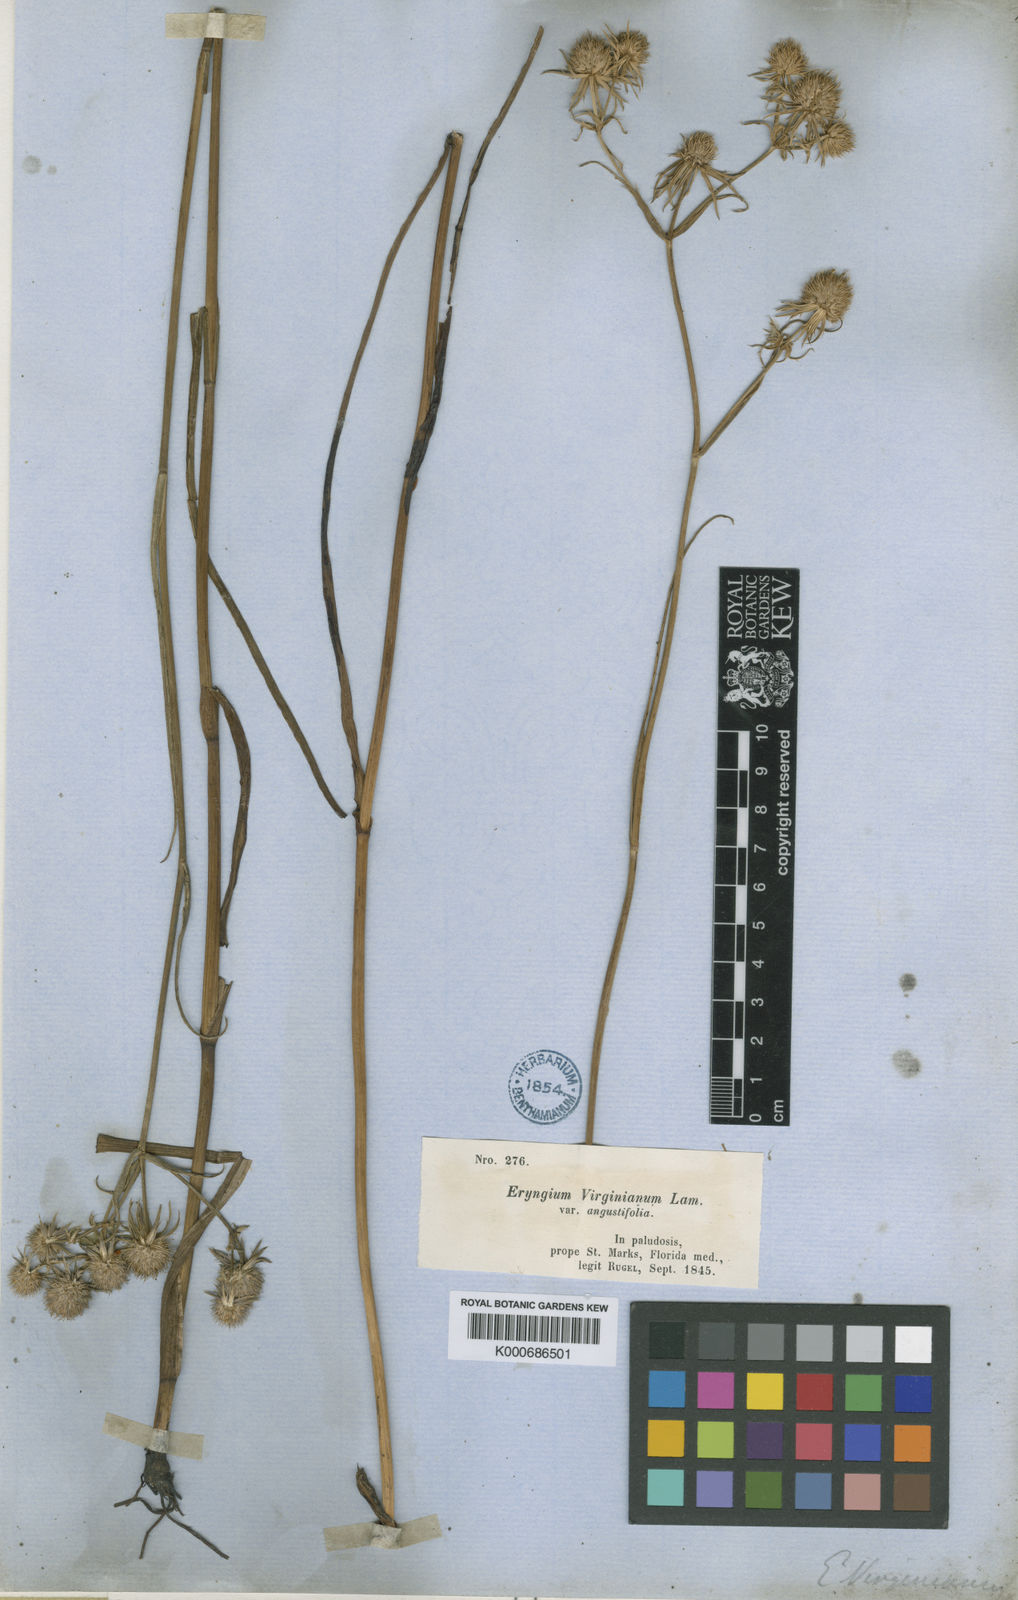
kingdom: Plantae
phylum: Tracheophyta
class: Magnoliopsida
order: Apiales
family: Apiaceae
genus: Eryngium
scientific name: Eryngium aquaticum
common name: Water eryngo
